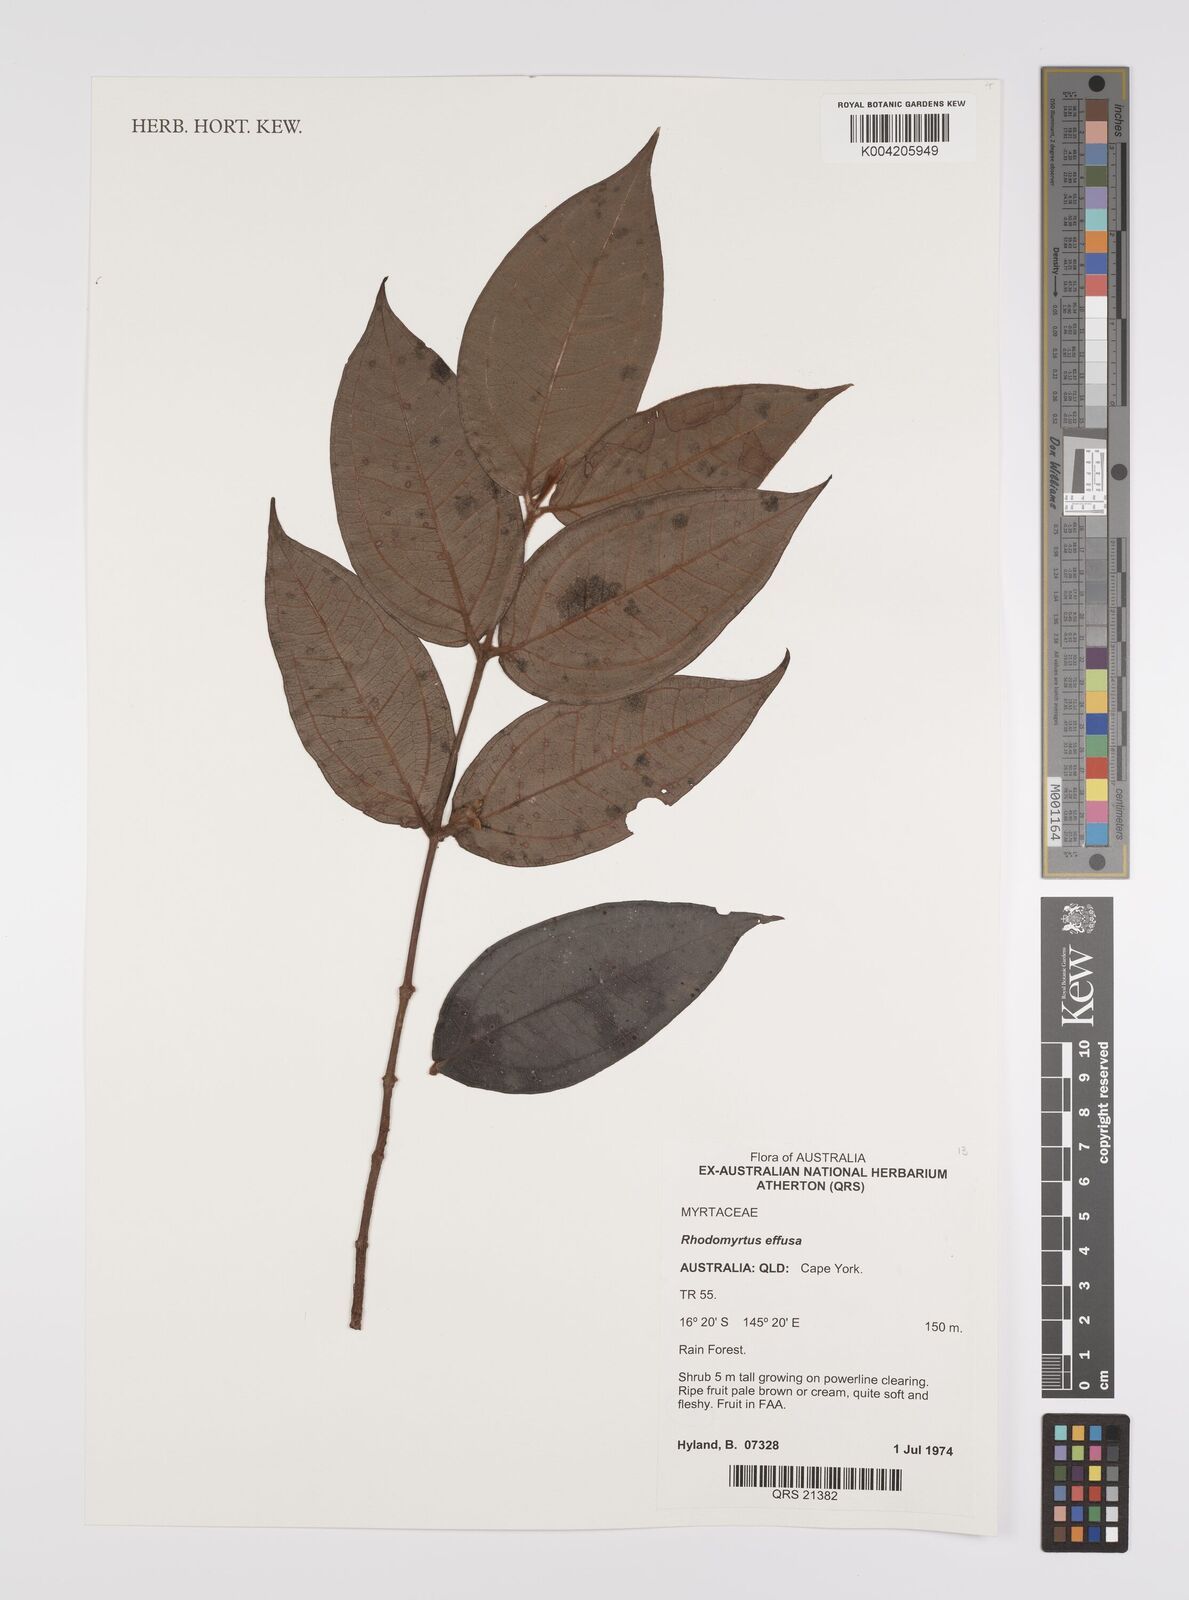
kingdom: Plantae
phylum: Tracheophyta
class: Magnoliopsida
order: Myrtales
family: Myrtaceae
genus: Rhodomyrtus
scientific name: Rhodomyrtus effusa
